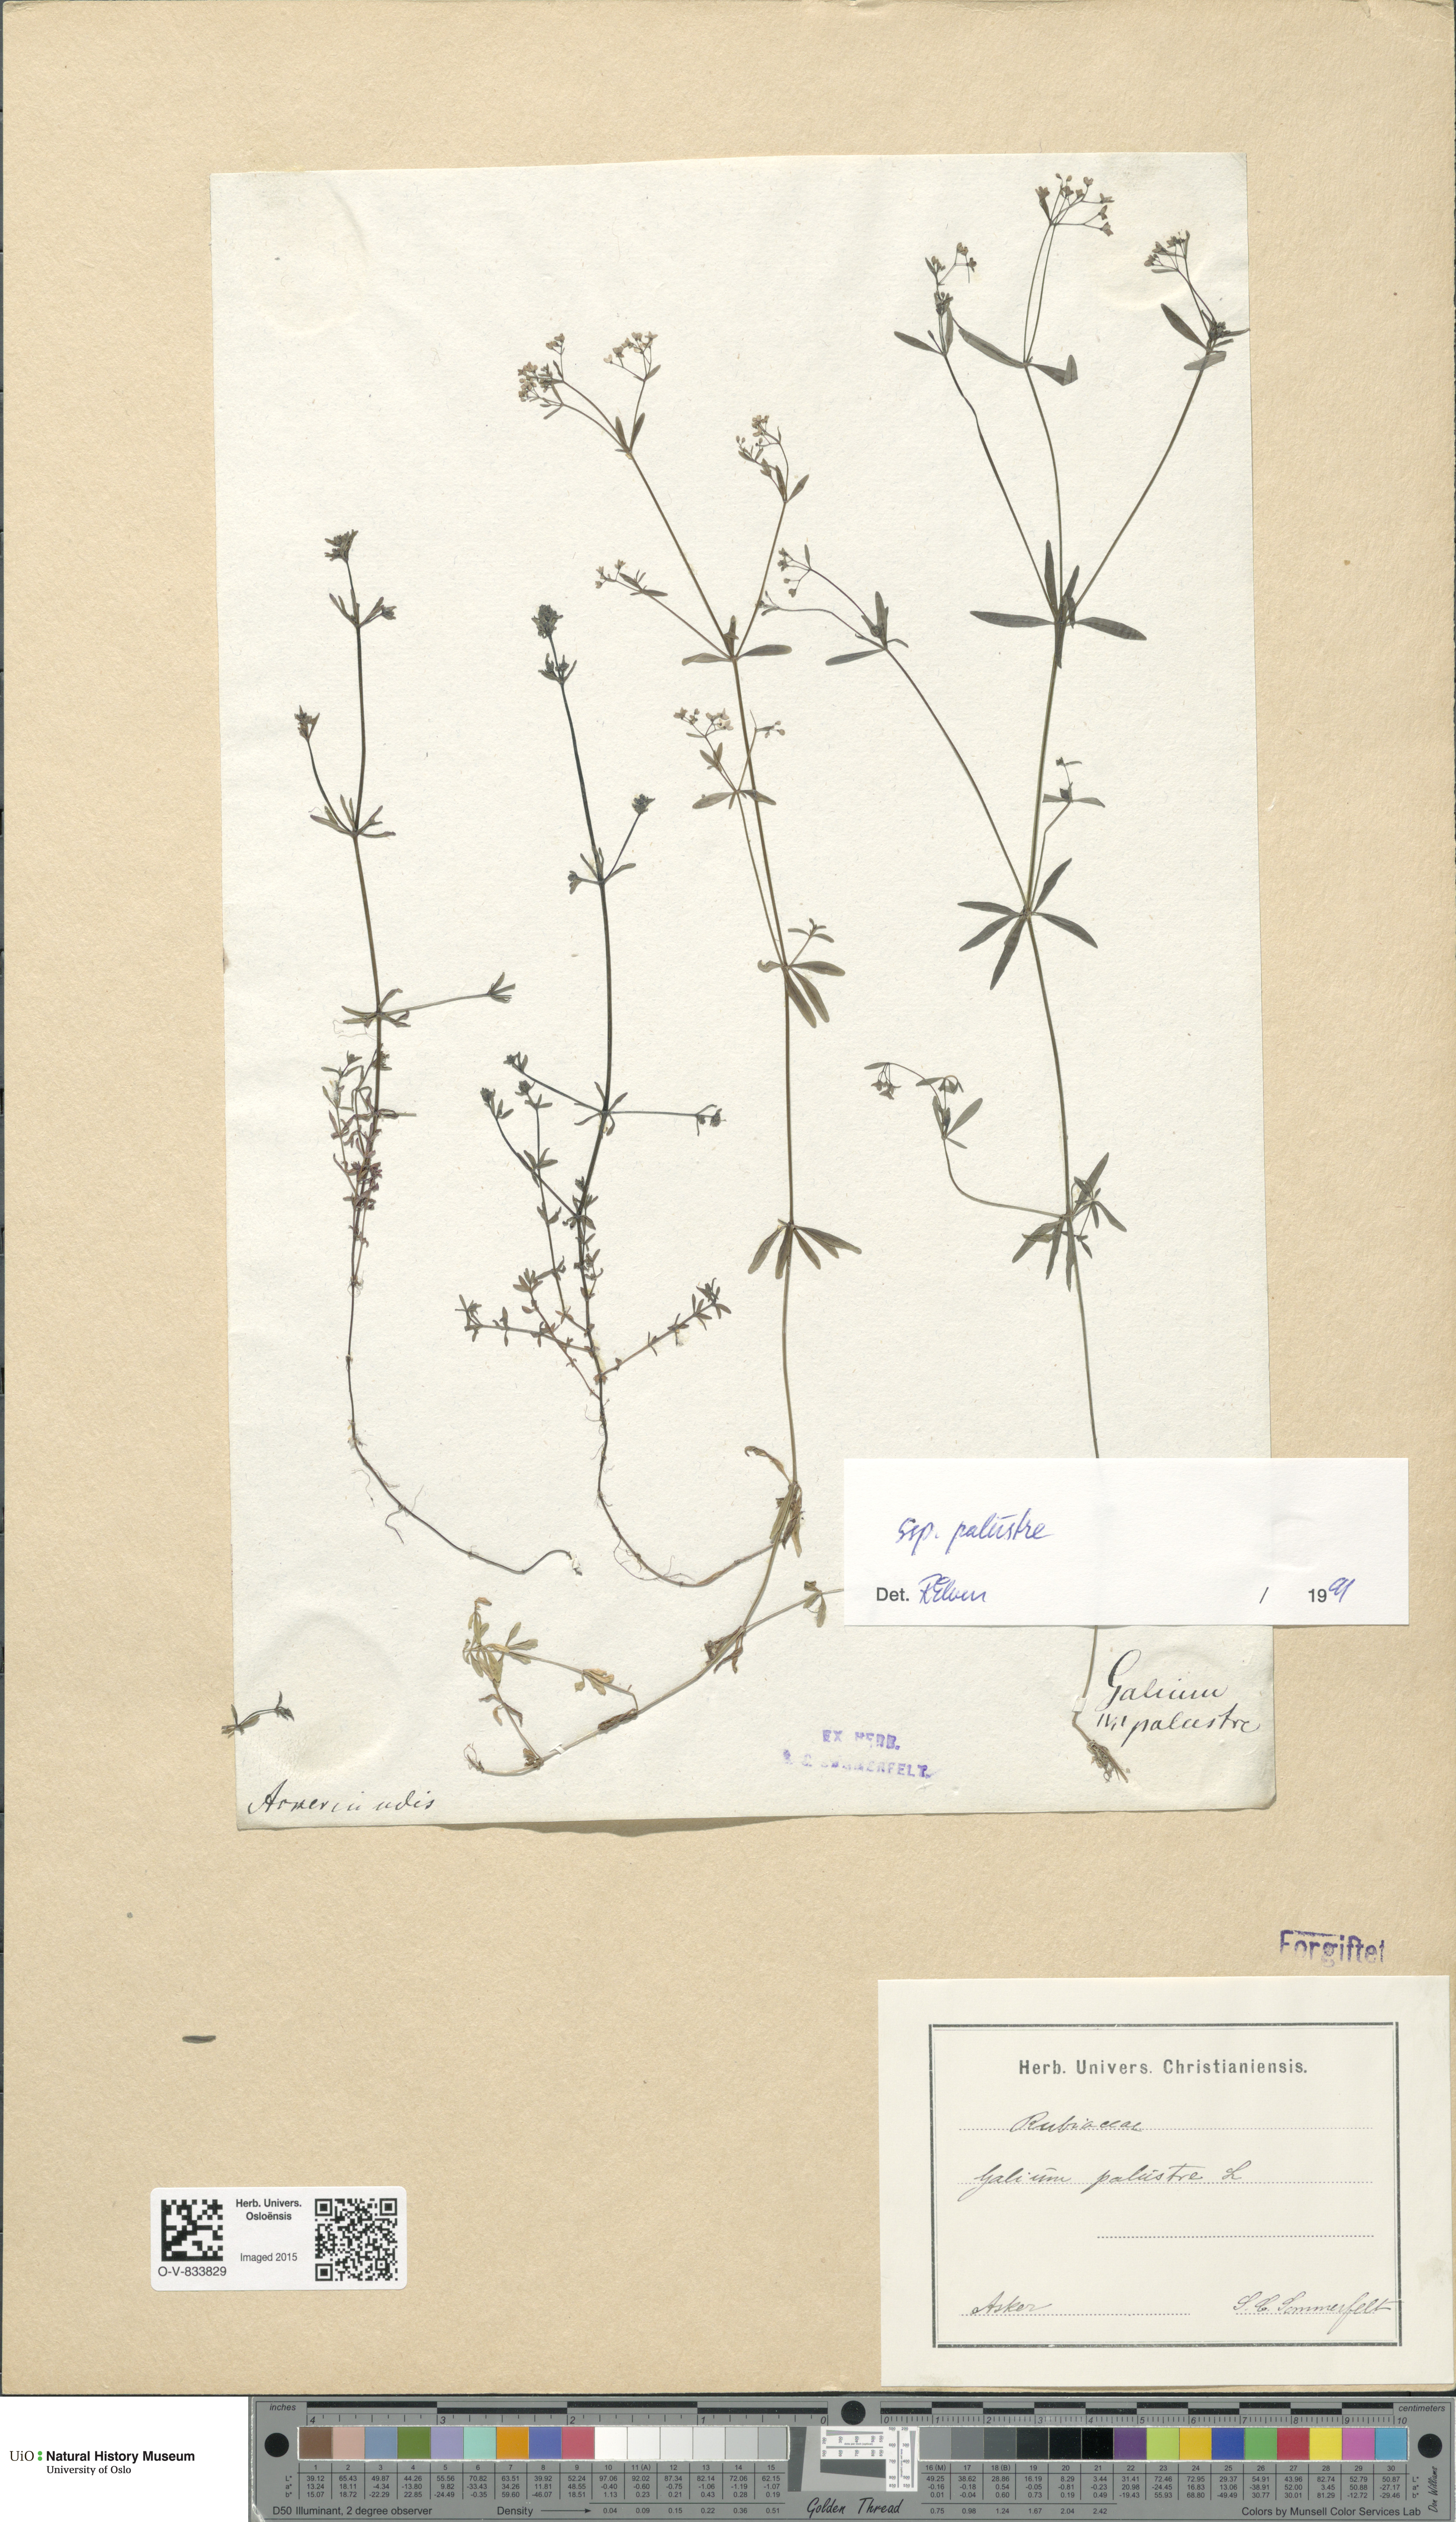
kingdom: Plantae
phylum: Tracheophyta
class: Magnoliopsida
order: Gentianales
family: Rubiaceae
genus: Galium
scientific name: Galium palustre
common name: Common marsh-bedstraw
